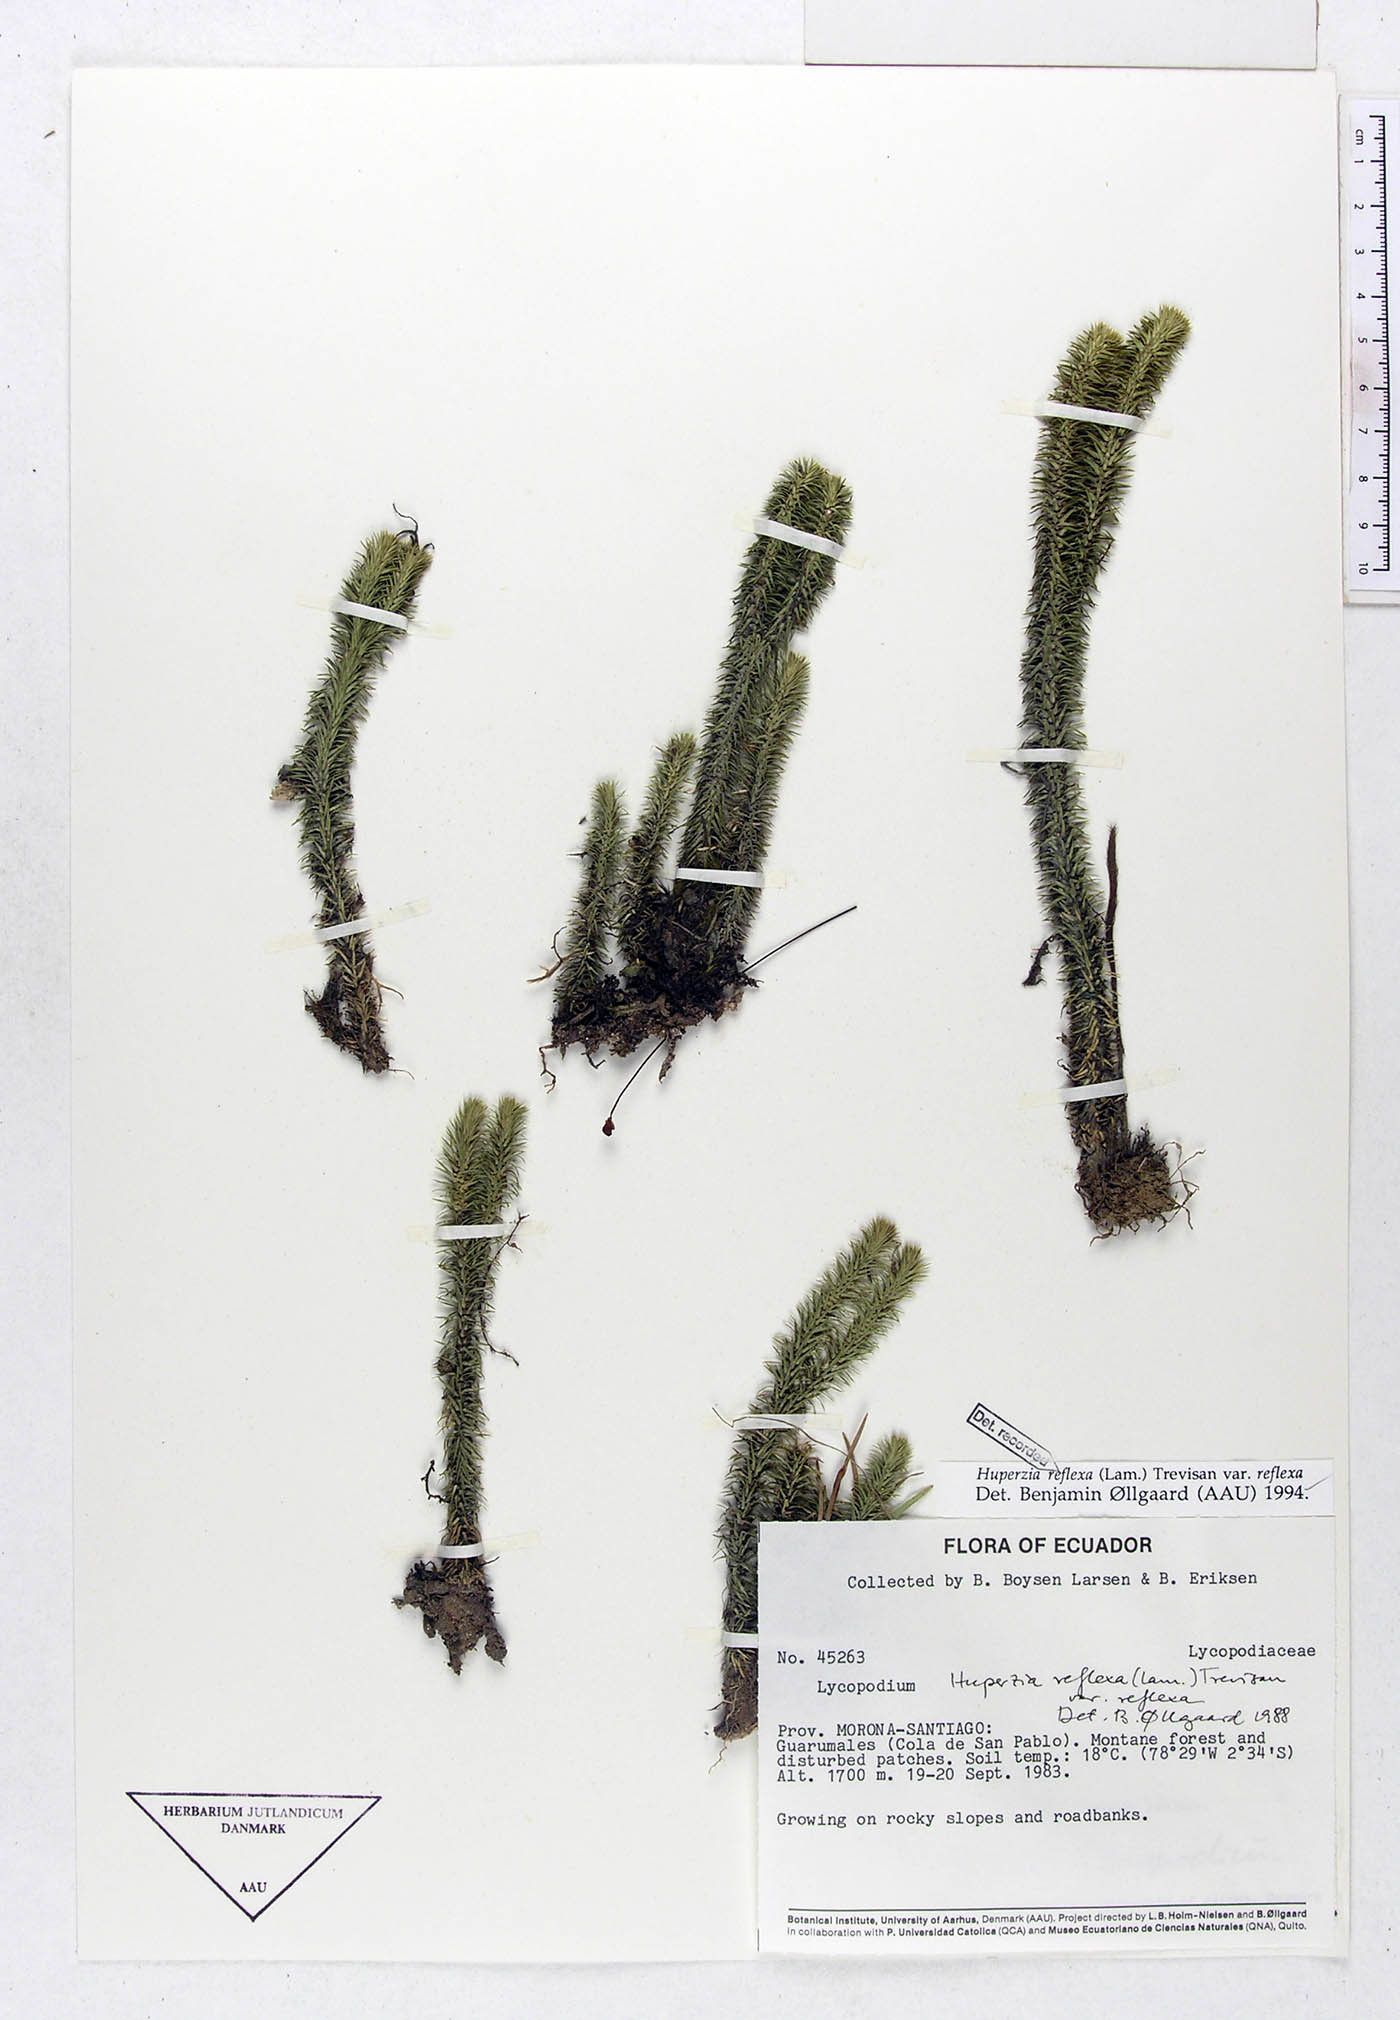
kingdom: Plantae
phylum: Tracheophyta
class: Lycopodiopsida
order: Lycopodiales
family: Lycopodiaceae
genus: Phlegmariurus
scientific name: Phlegmariurus reflexus
